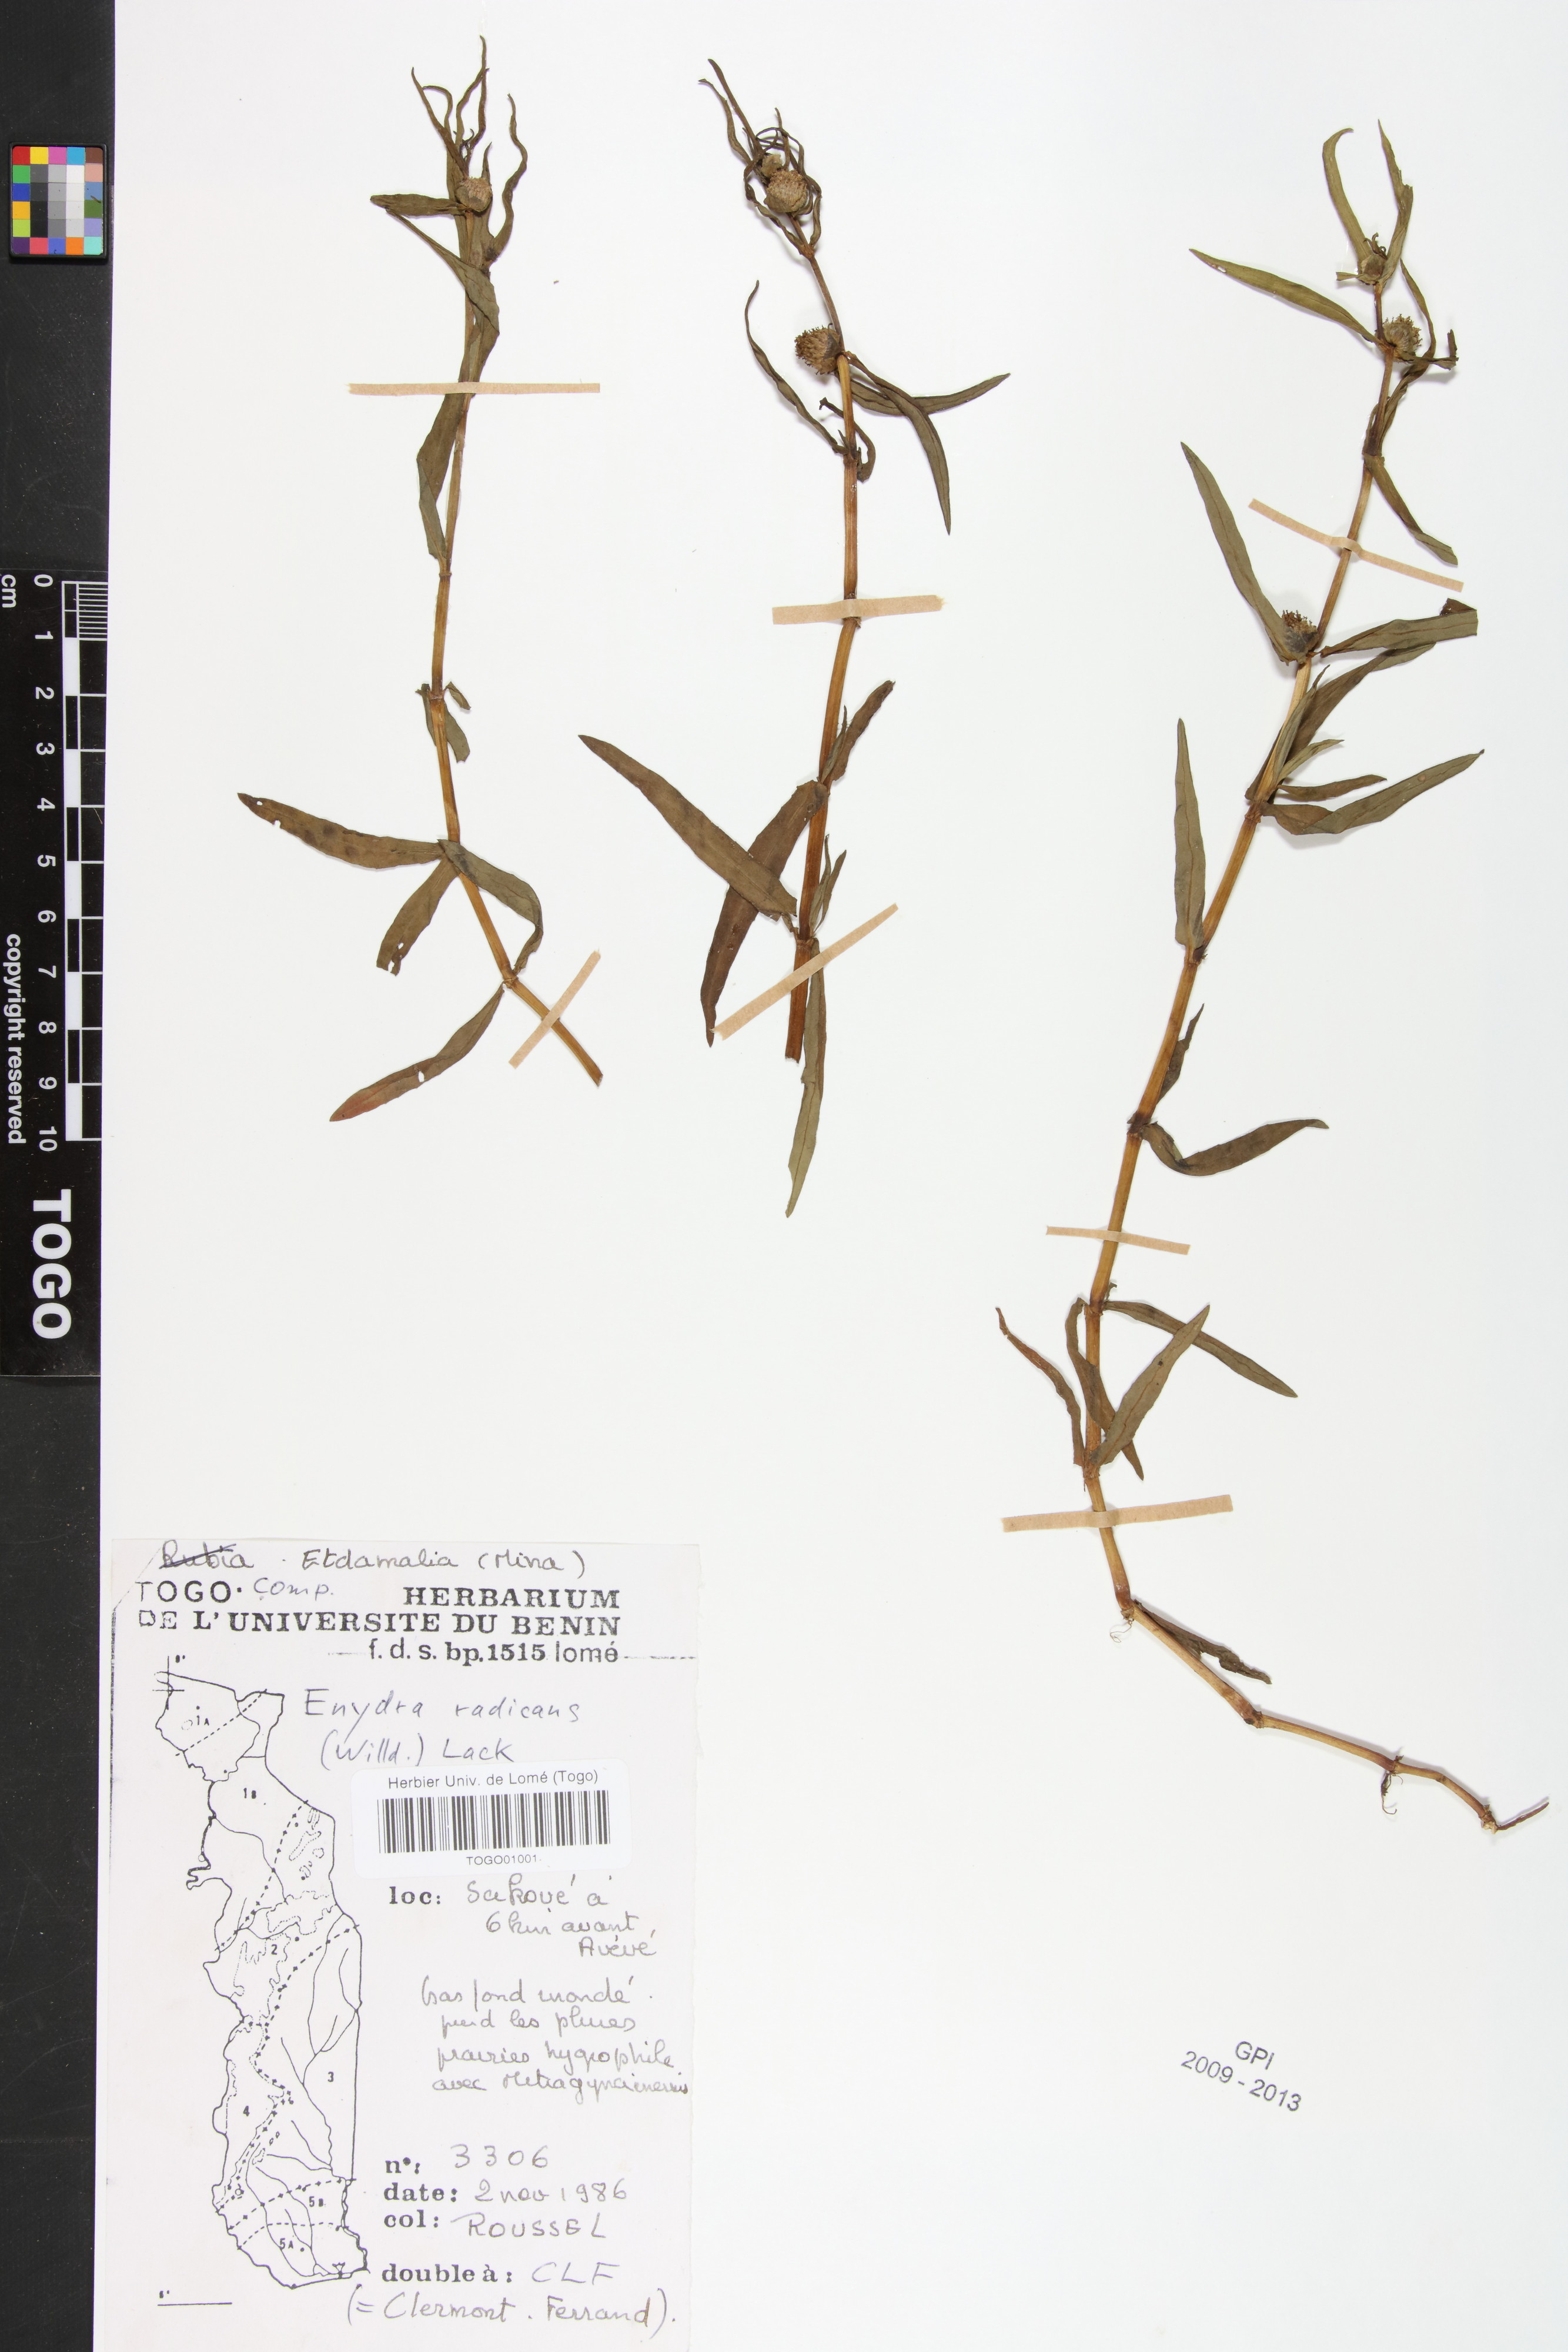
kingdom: Plantae
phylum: Tracheophyta
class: Magnoliopsida
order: Asterales
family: Asteraceae
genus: Enydra
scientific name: Enydra radicans
